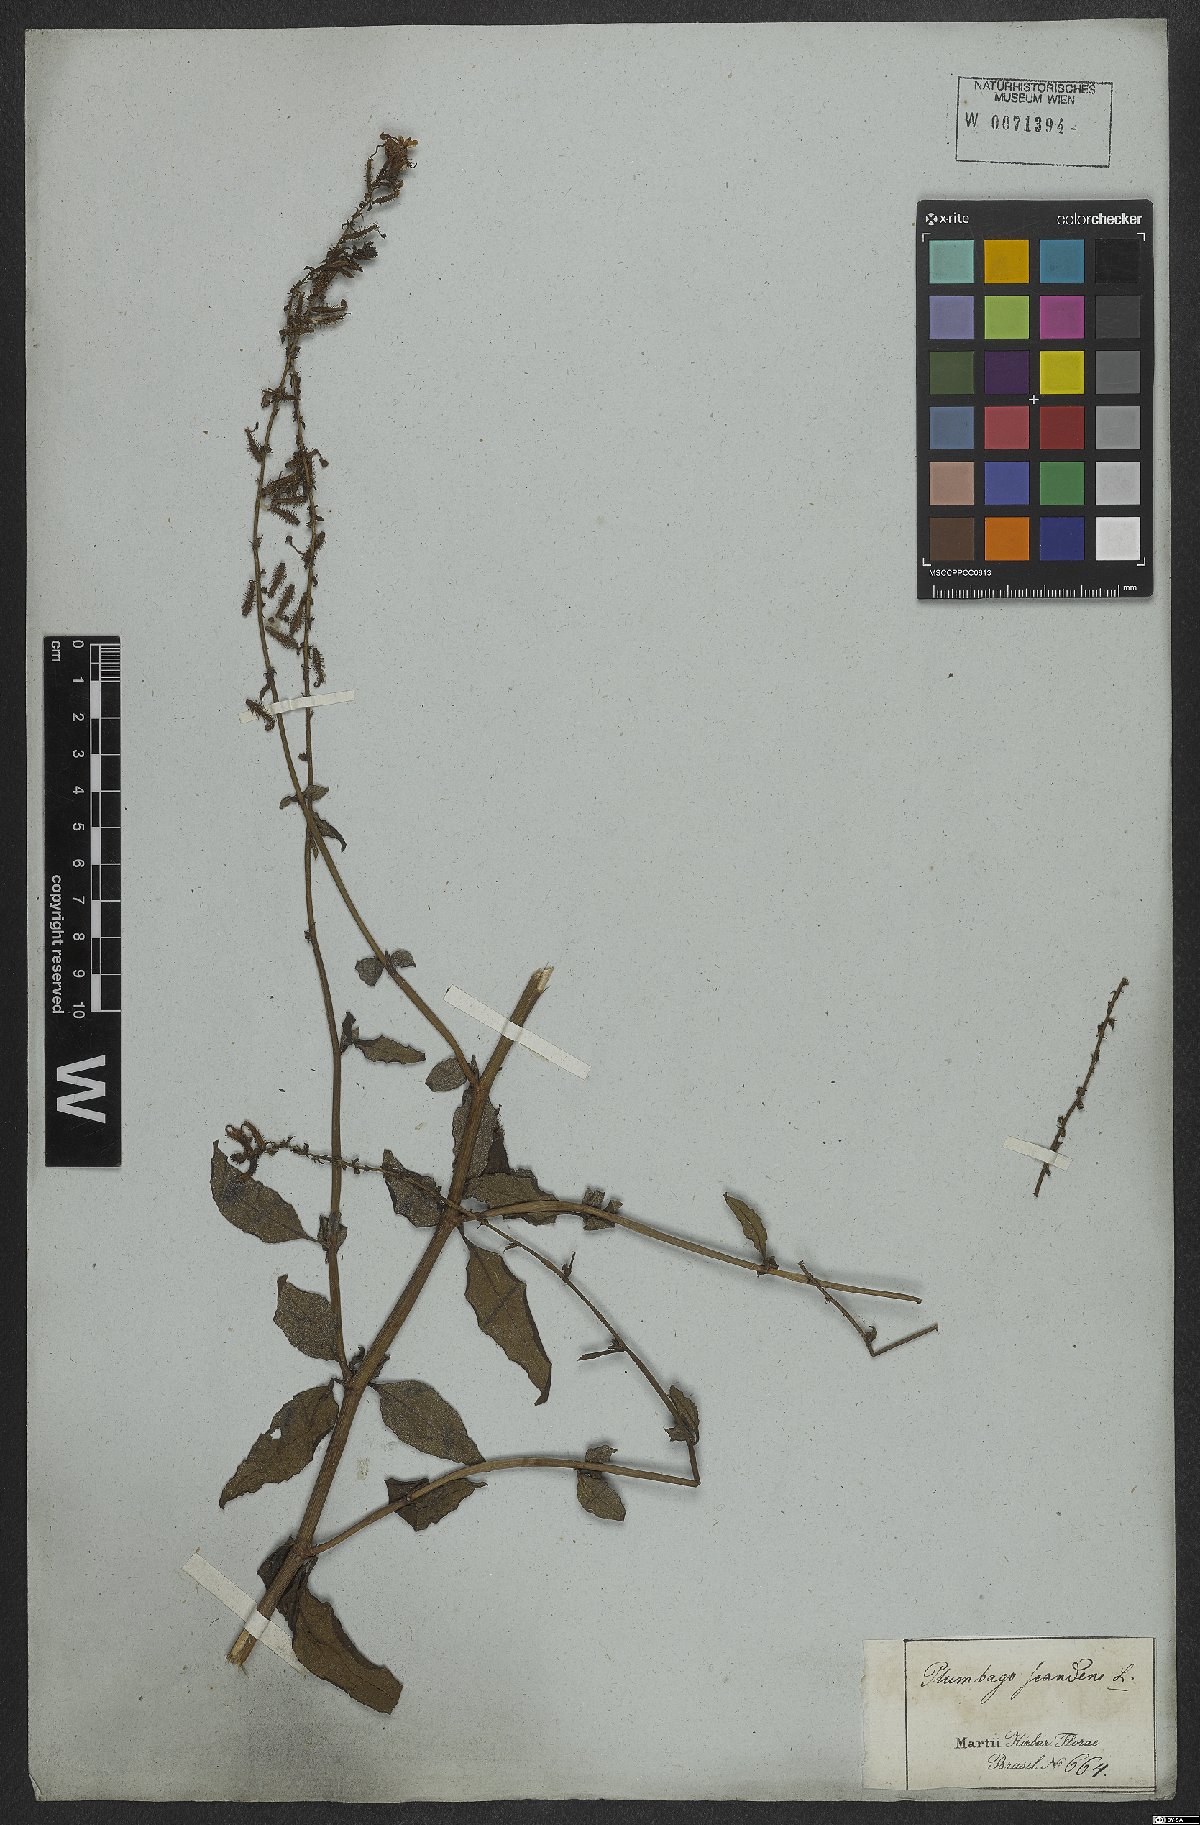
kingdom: Plantae
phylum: Tracheophyta
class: Magnoliopsida
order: Caryophyllales
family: Plumbaginaceae
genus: Plumbago
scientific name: Plumbago zeylanica
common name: Doctorbush
